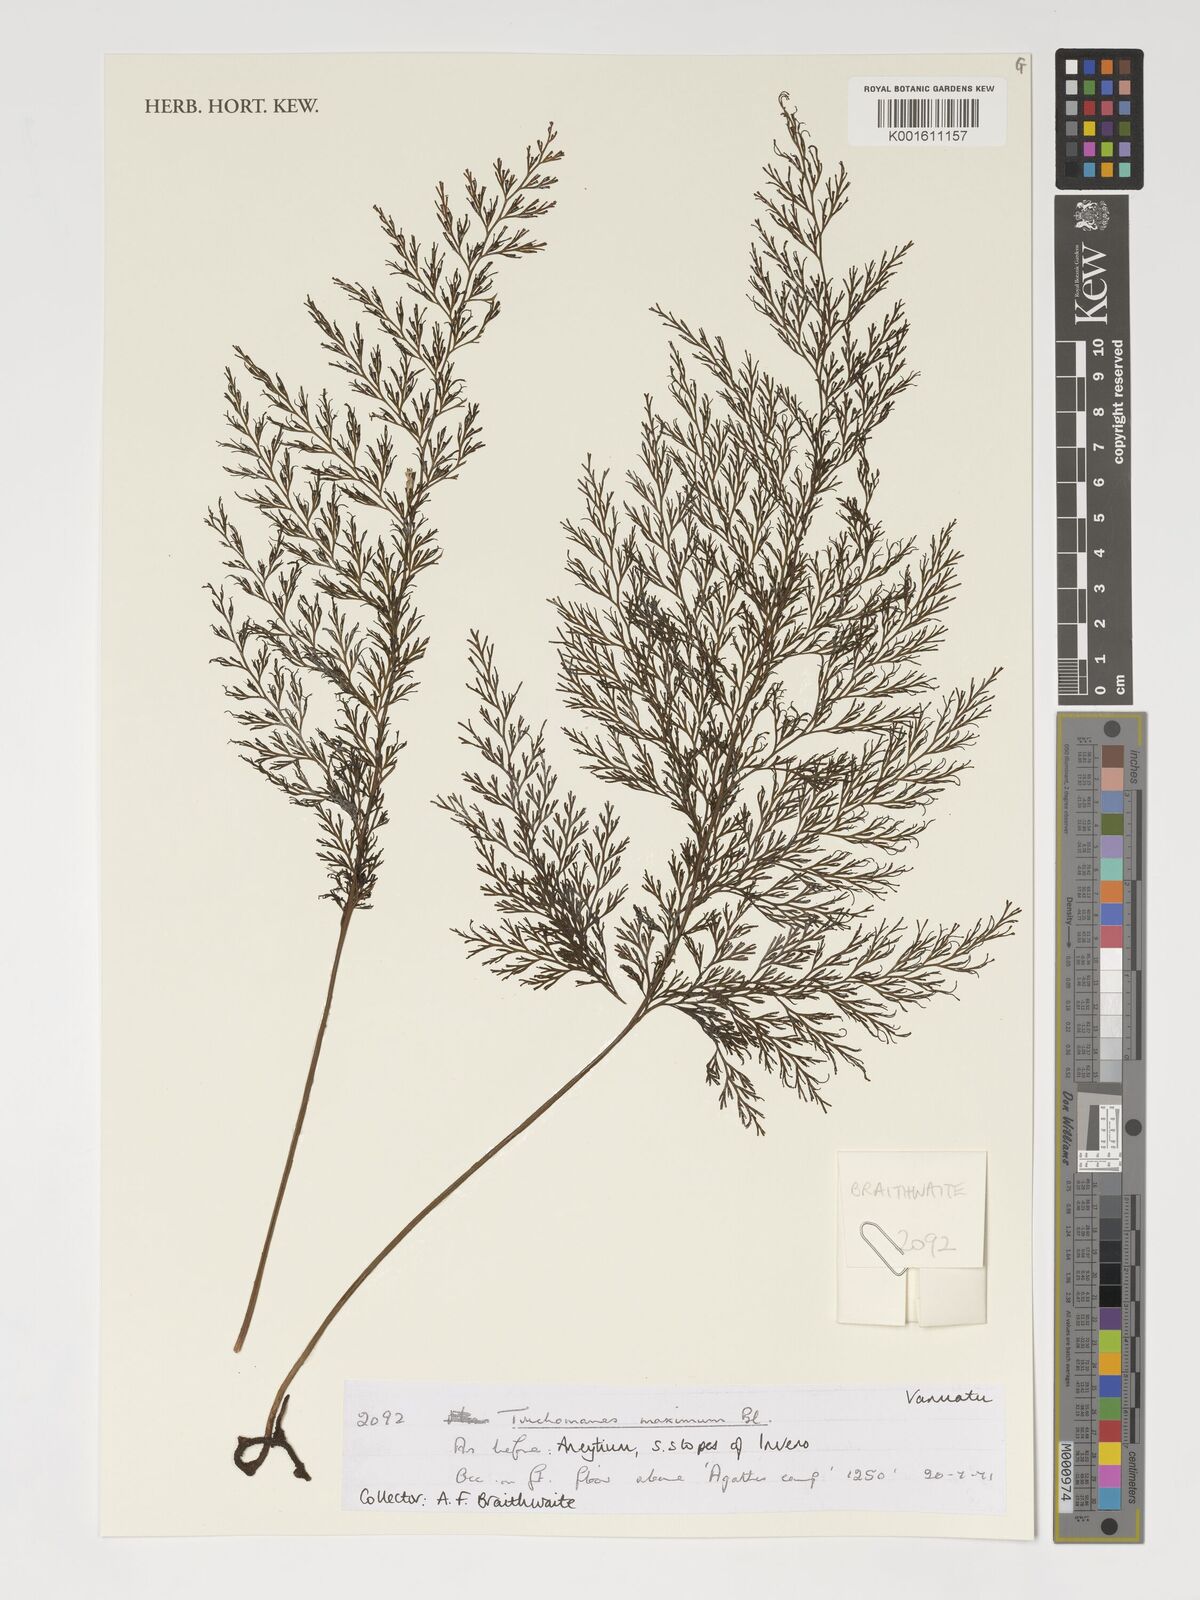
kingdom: Plantae
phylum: Tracheophyta
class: Polypodiopsida
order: Hymenophyllales
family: Hymenophyllaceae
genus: Vandenboschia
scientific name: Vandenboschia maxima
